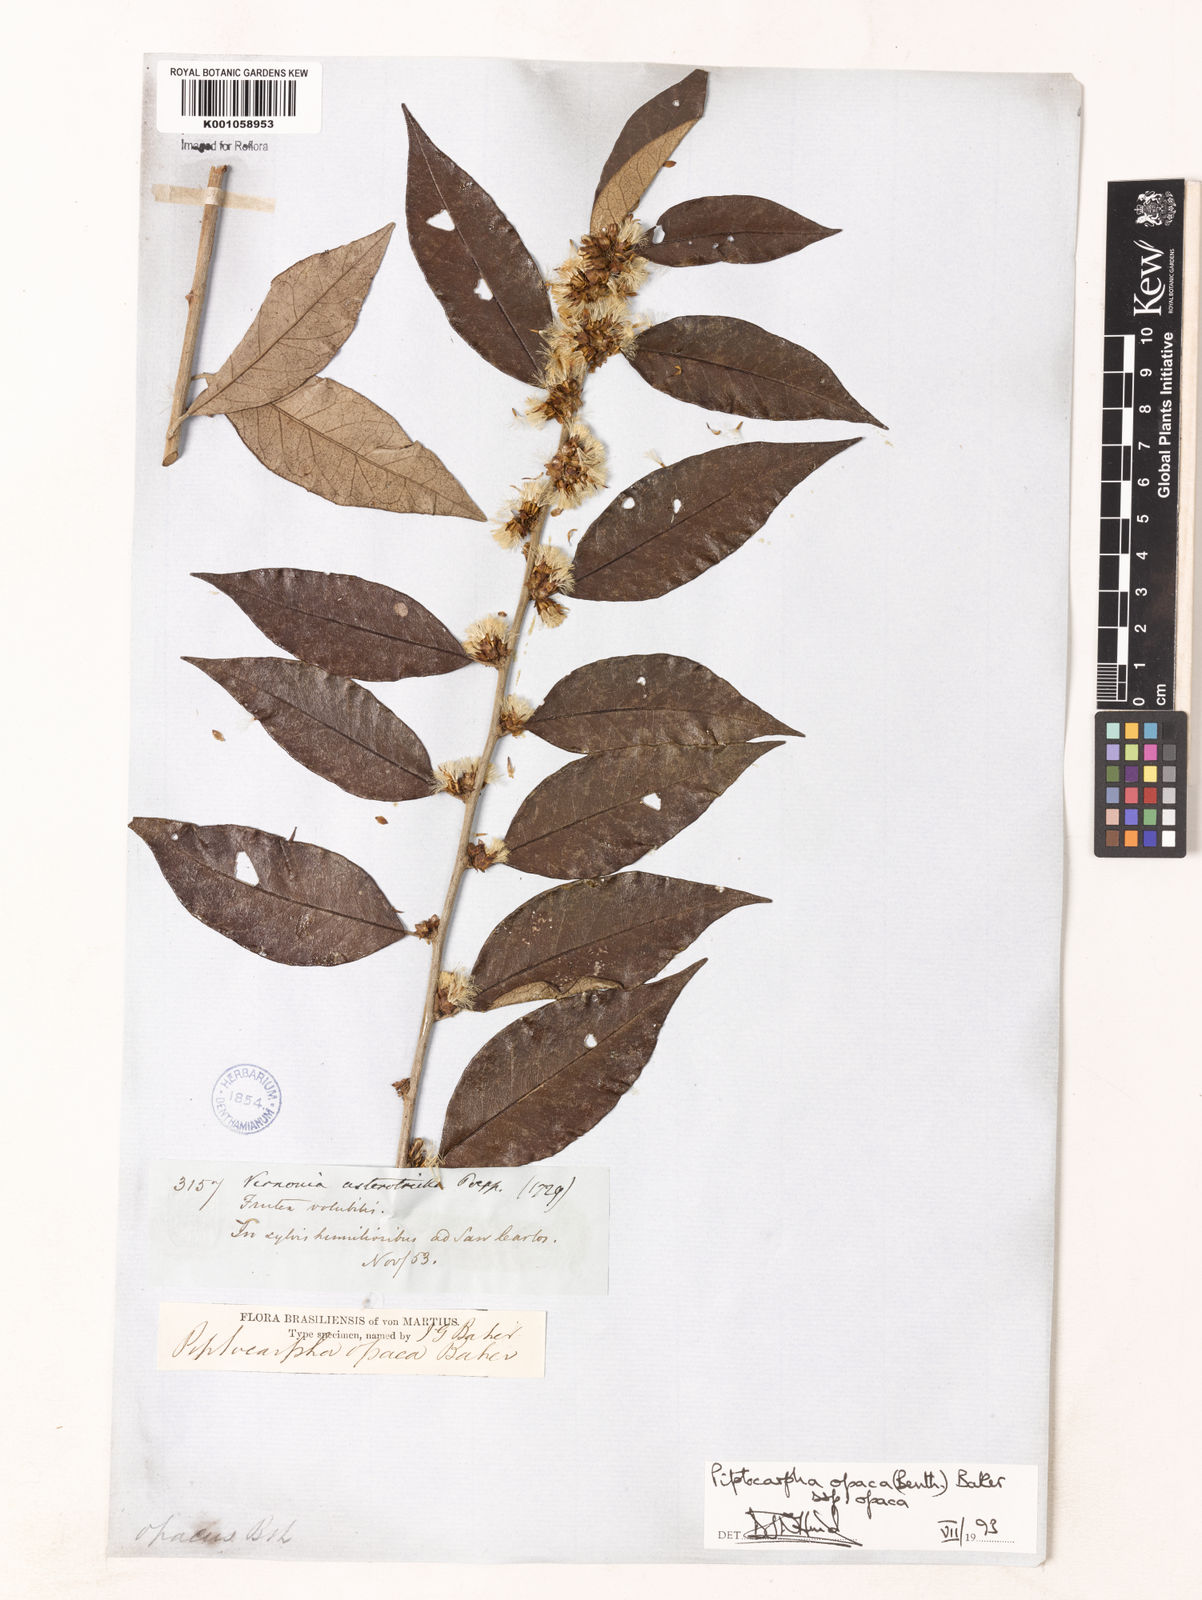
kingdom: Plantae
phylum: Tracheophyta
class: Magnoliopsida
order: Asterales
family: Asteraceae
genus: Piptocarpha
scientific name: Piptocarpha opaca
